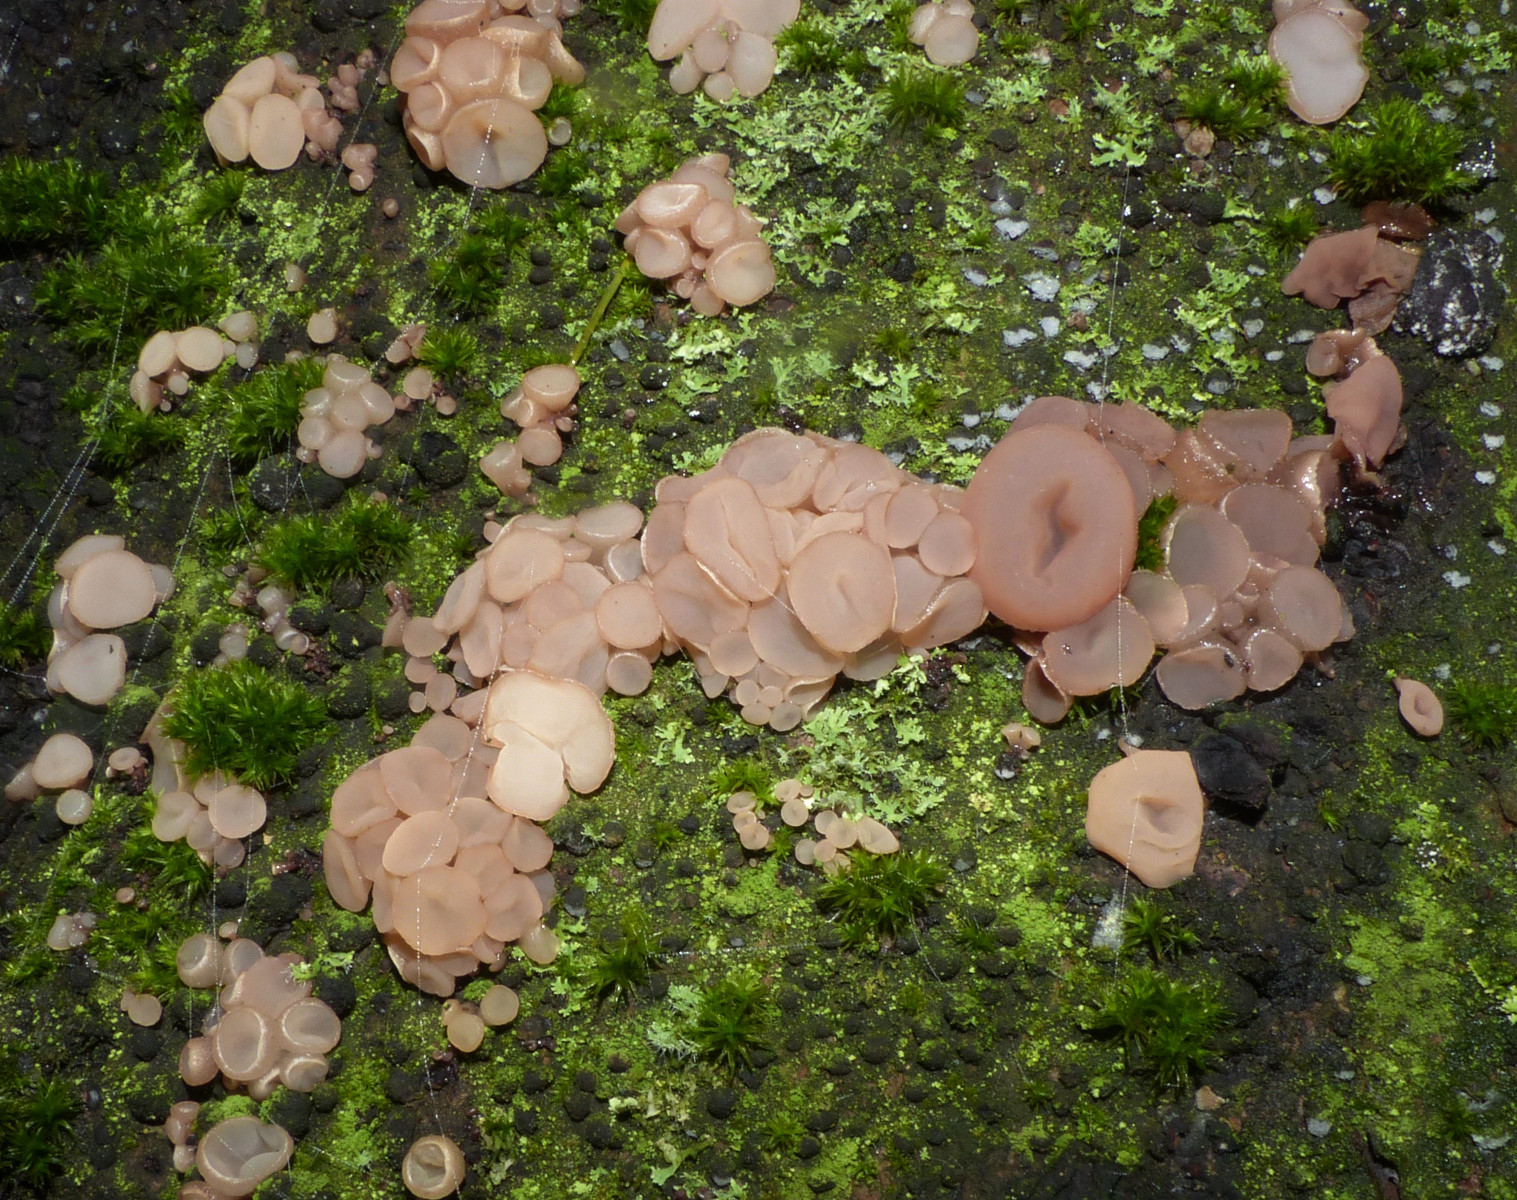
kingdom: Fungi
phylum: Ascomycota
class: Leotiomycetes
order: Helotiales
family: Gelatinodiscaceae
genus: Neobulgaria
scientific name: Neobulgaria pura
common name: bleg bævreskive
